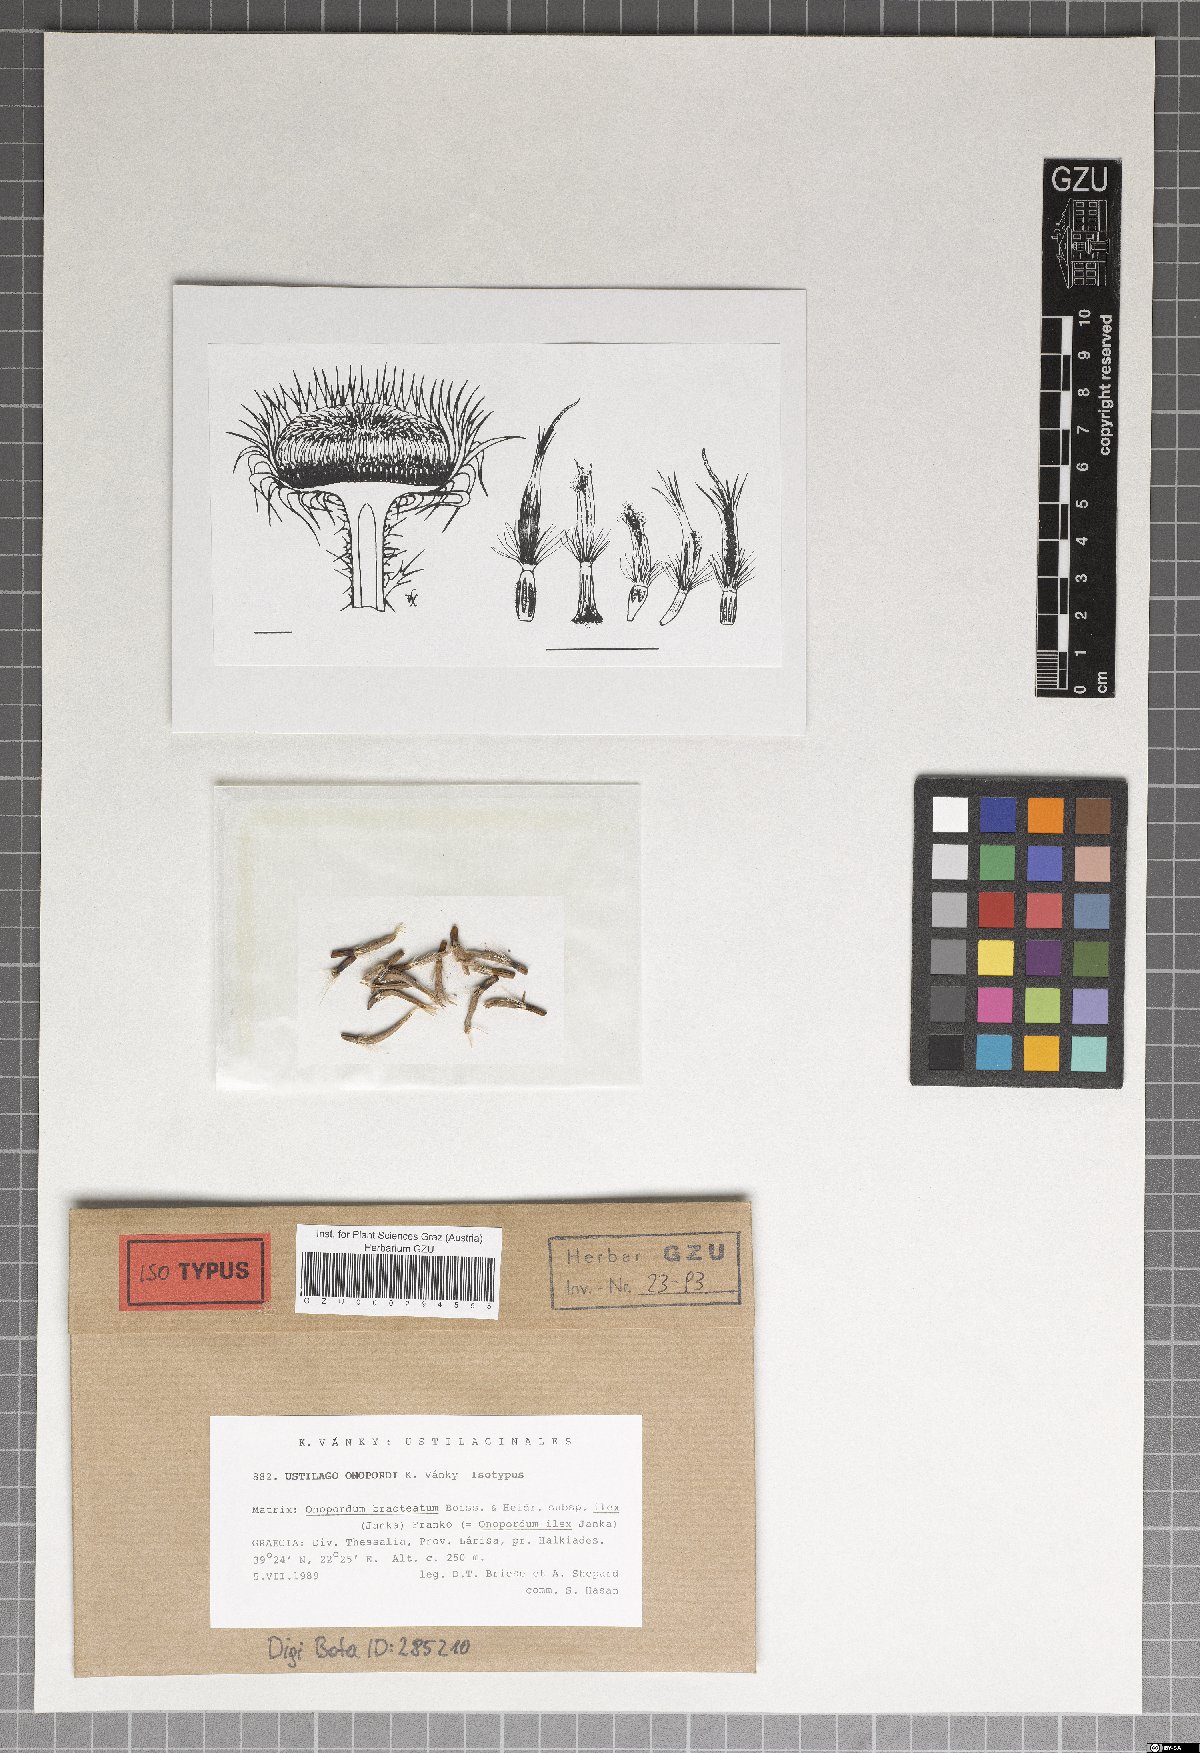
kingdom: Fungi
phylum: Basidiomycota
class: Microbotryomycetes
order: Microbotryales
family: Microbotryaceae
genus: Microbotryum
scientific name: Microbotryum onopordi
